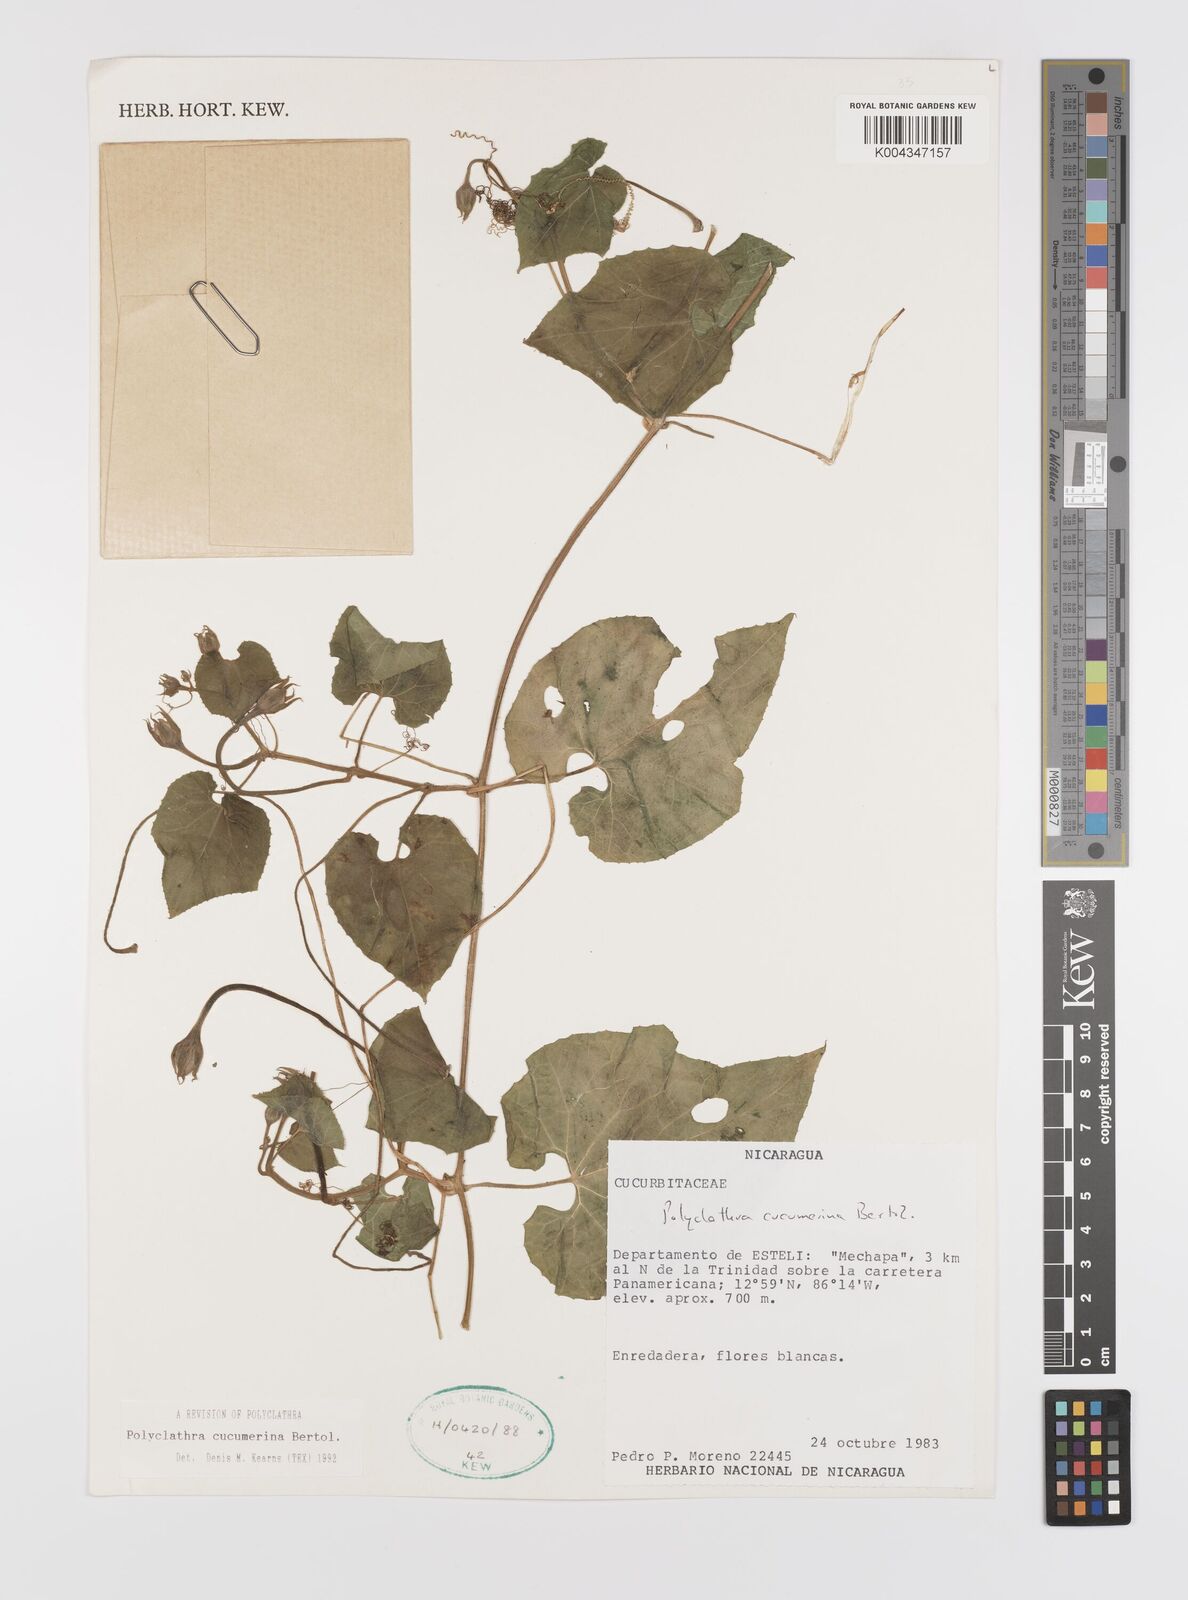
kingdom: Plantae
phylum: Tracheophyta
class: Magnoliopsida
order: Cucurbitales
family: Cucurbitaceae
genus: Polyclathra
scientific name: Polyclathra cucumerina
